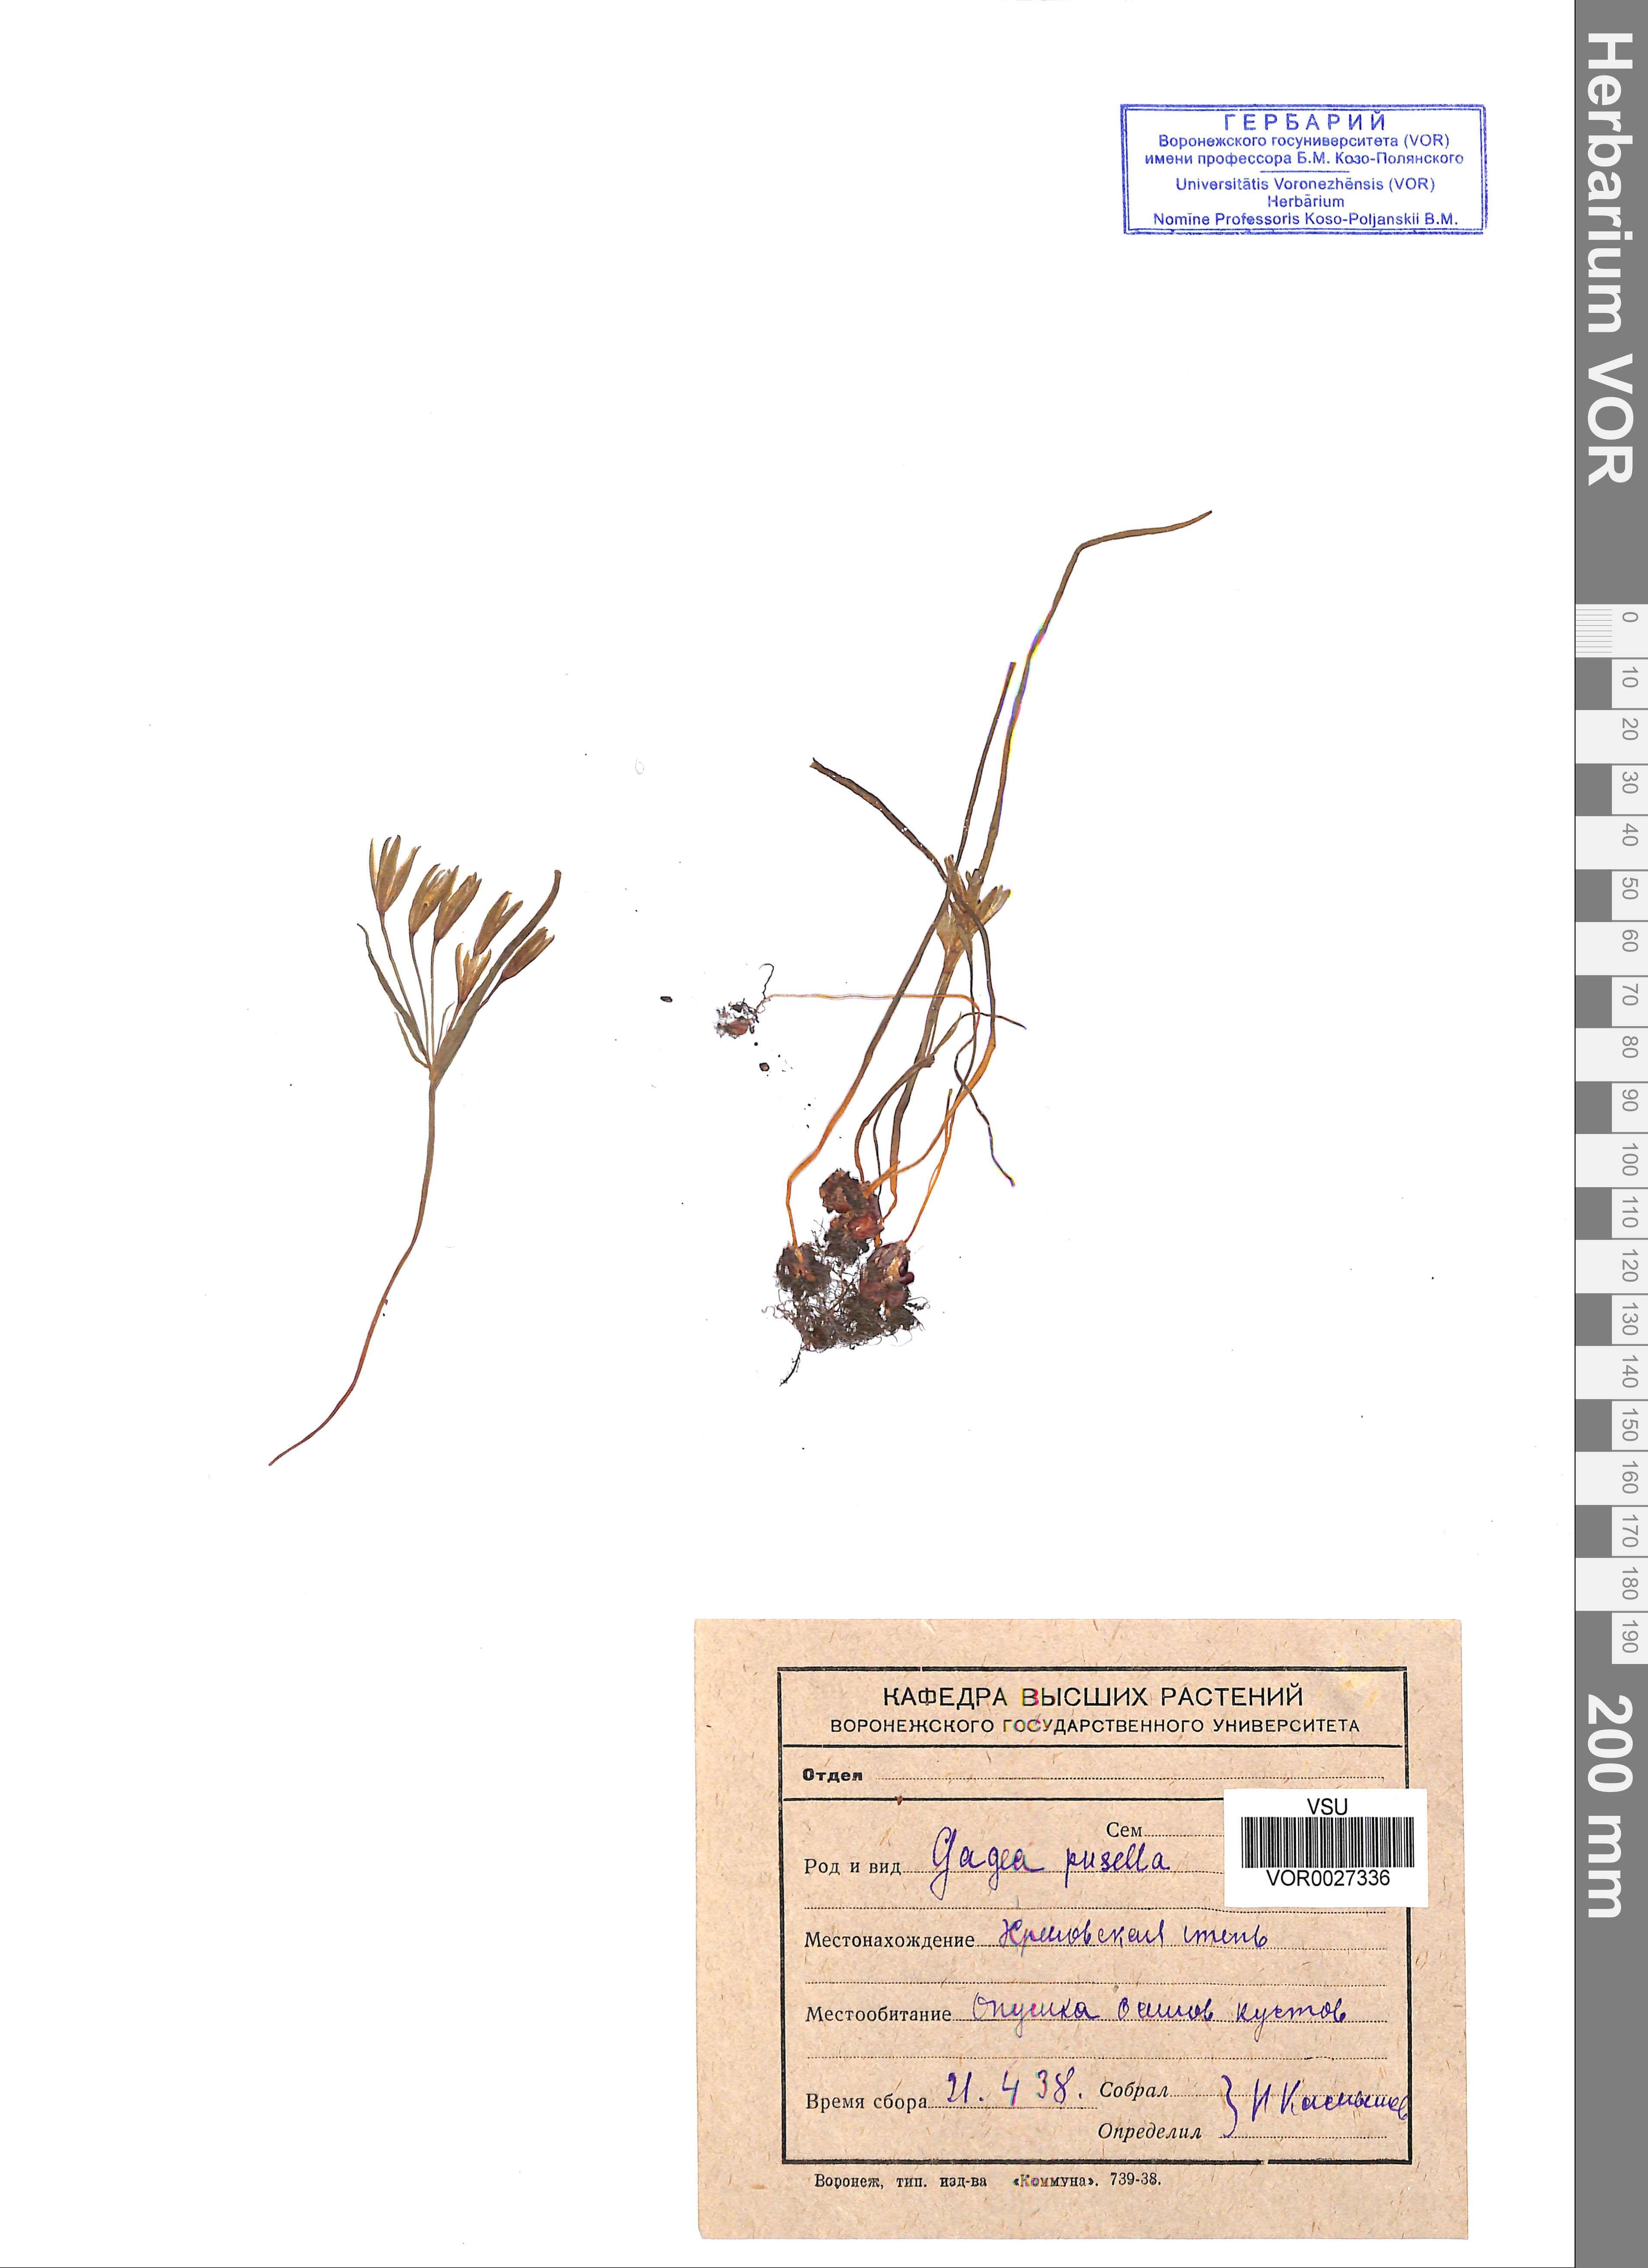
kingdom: Plantae
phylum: Tracheophyta
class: Liliopsida
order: Liliales
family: Liliaceae
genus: Gagea
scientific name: Gagea pusilla
